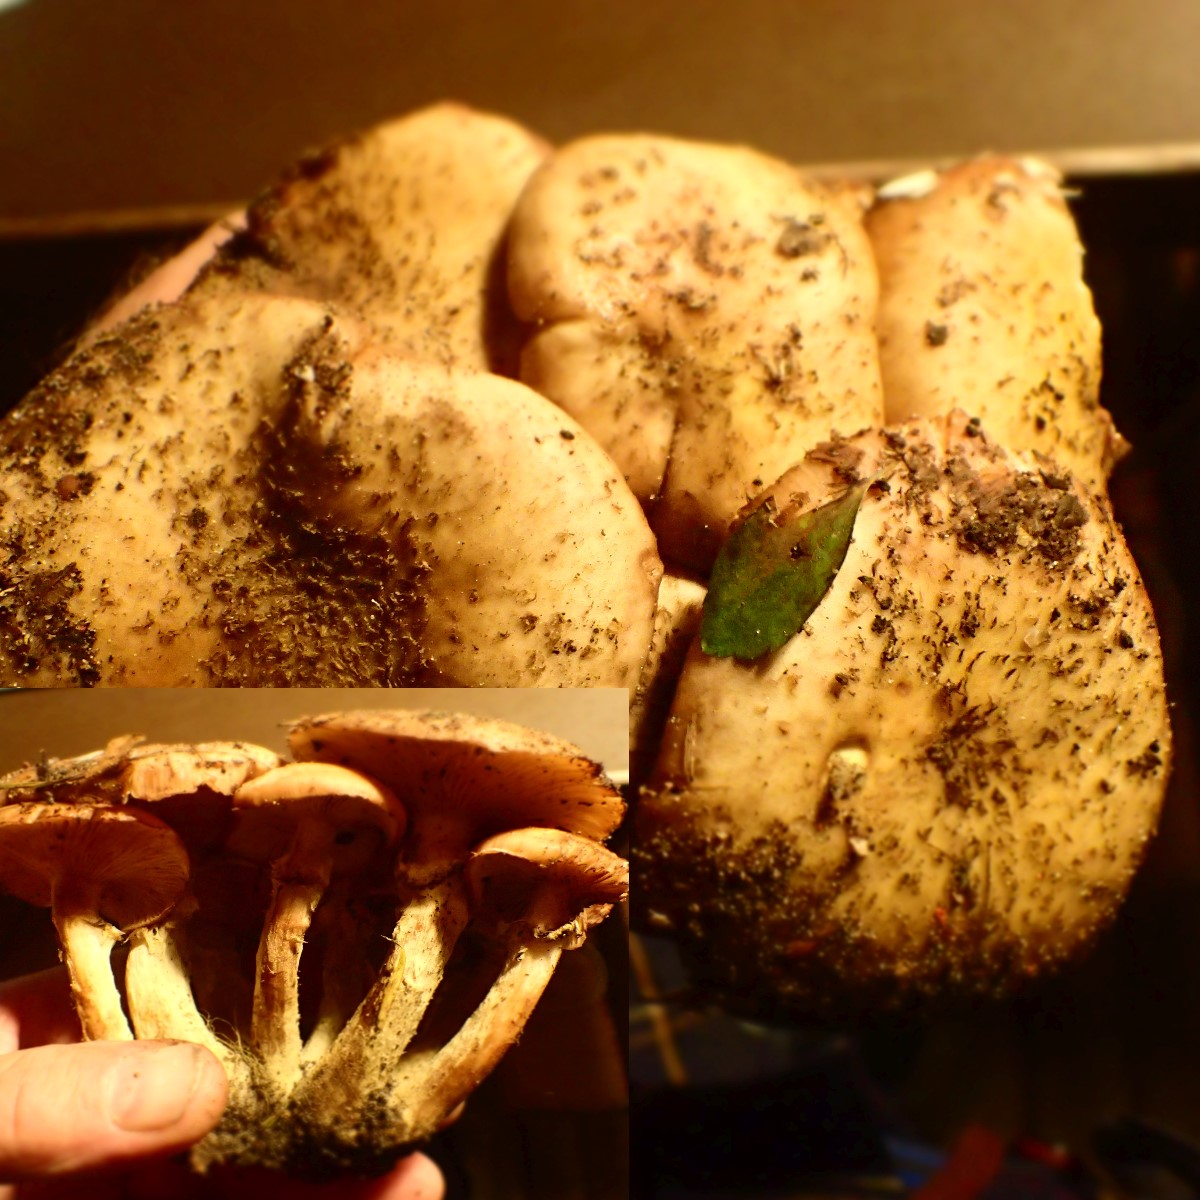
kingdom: Fungi
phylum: Basidiomycota
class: Agaricomycetes
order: Agaricales
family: Physalacriaceae
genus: Armillaria
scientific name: Armillaria
